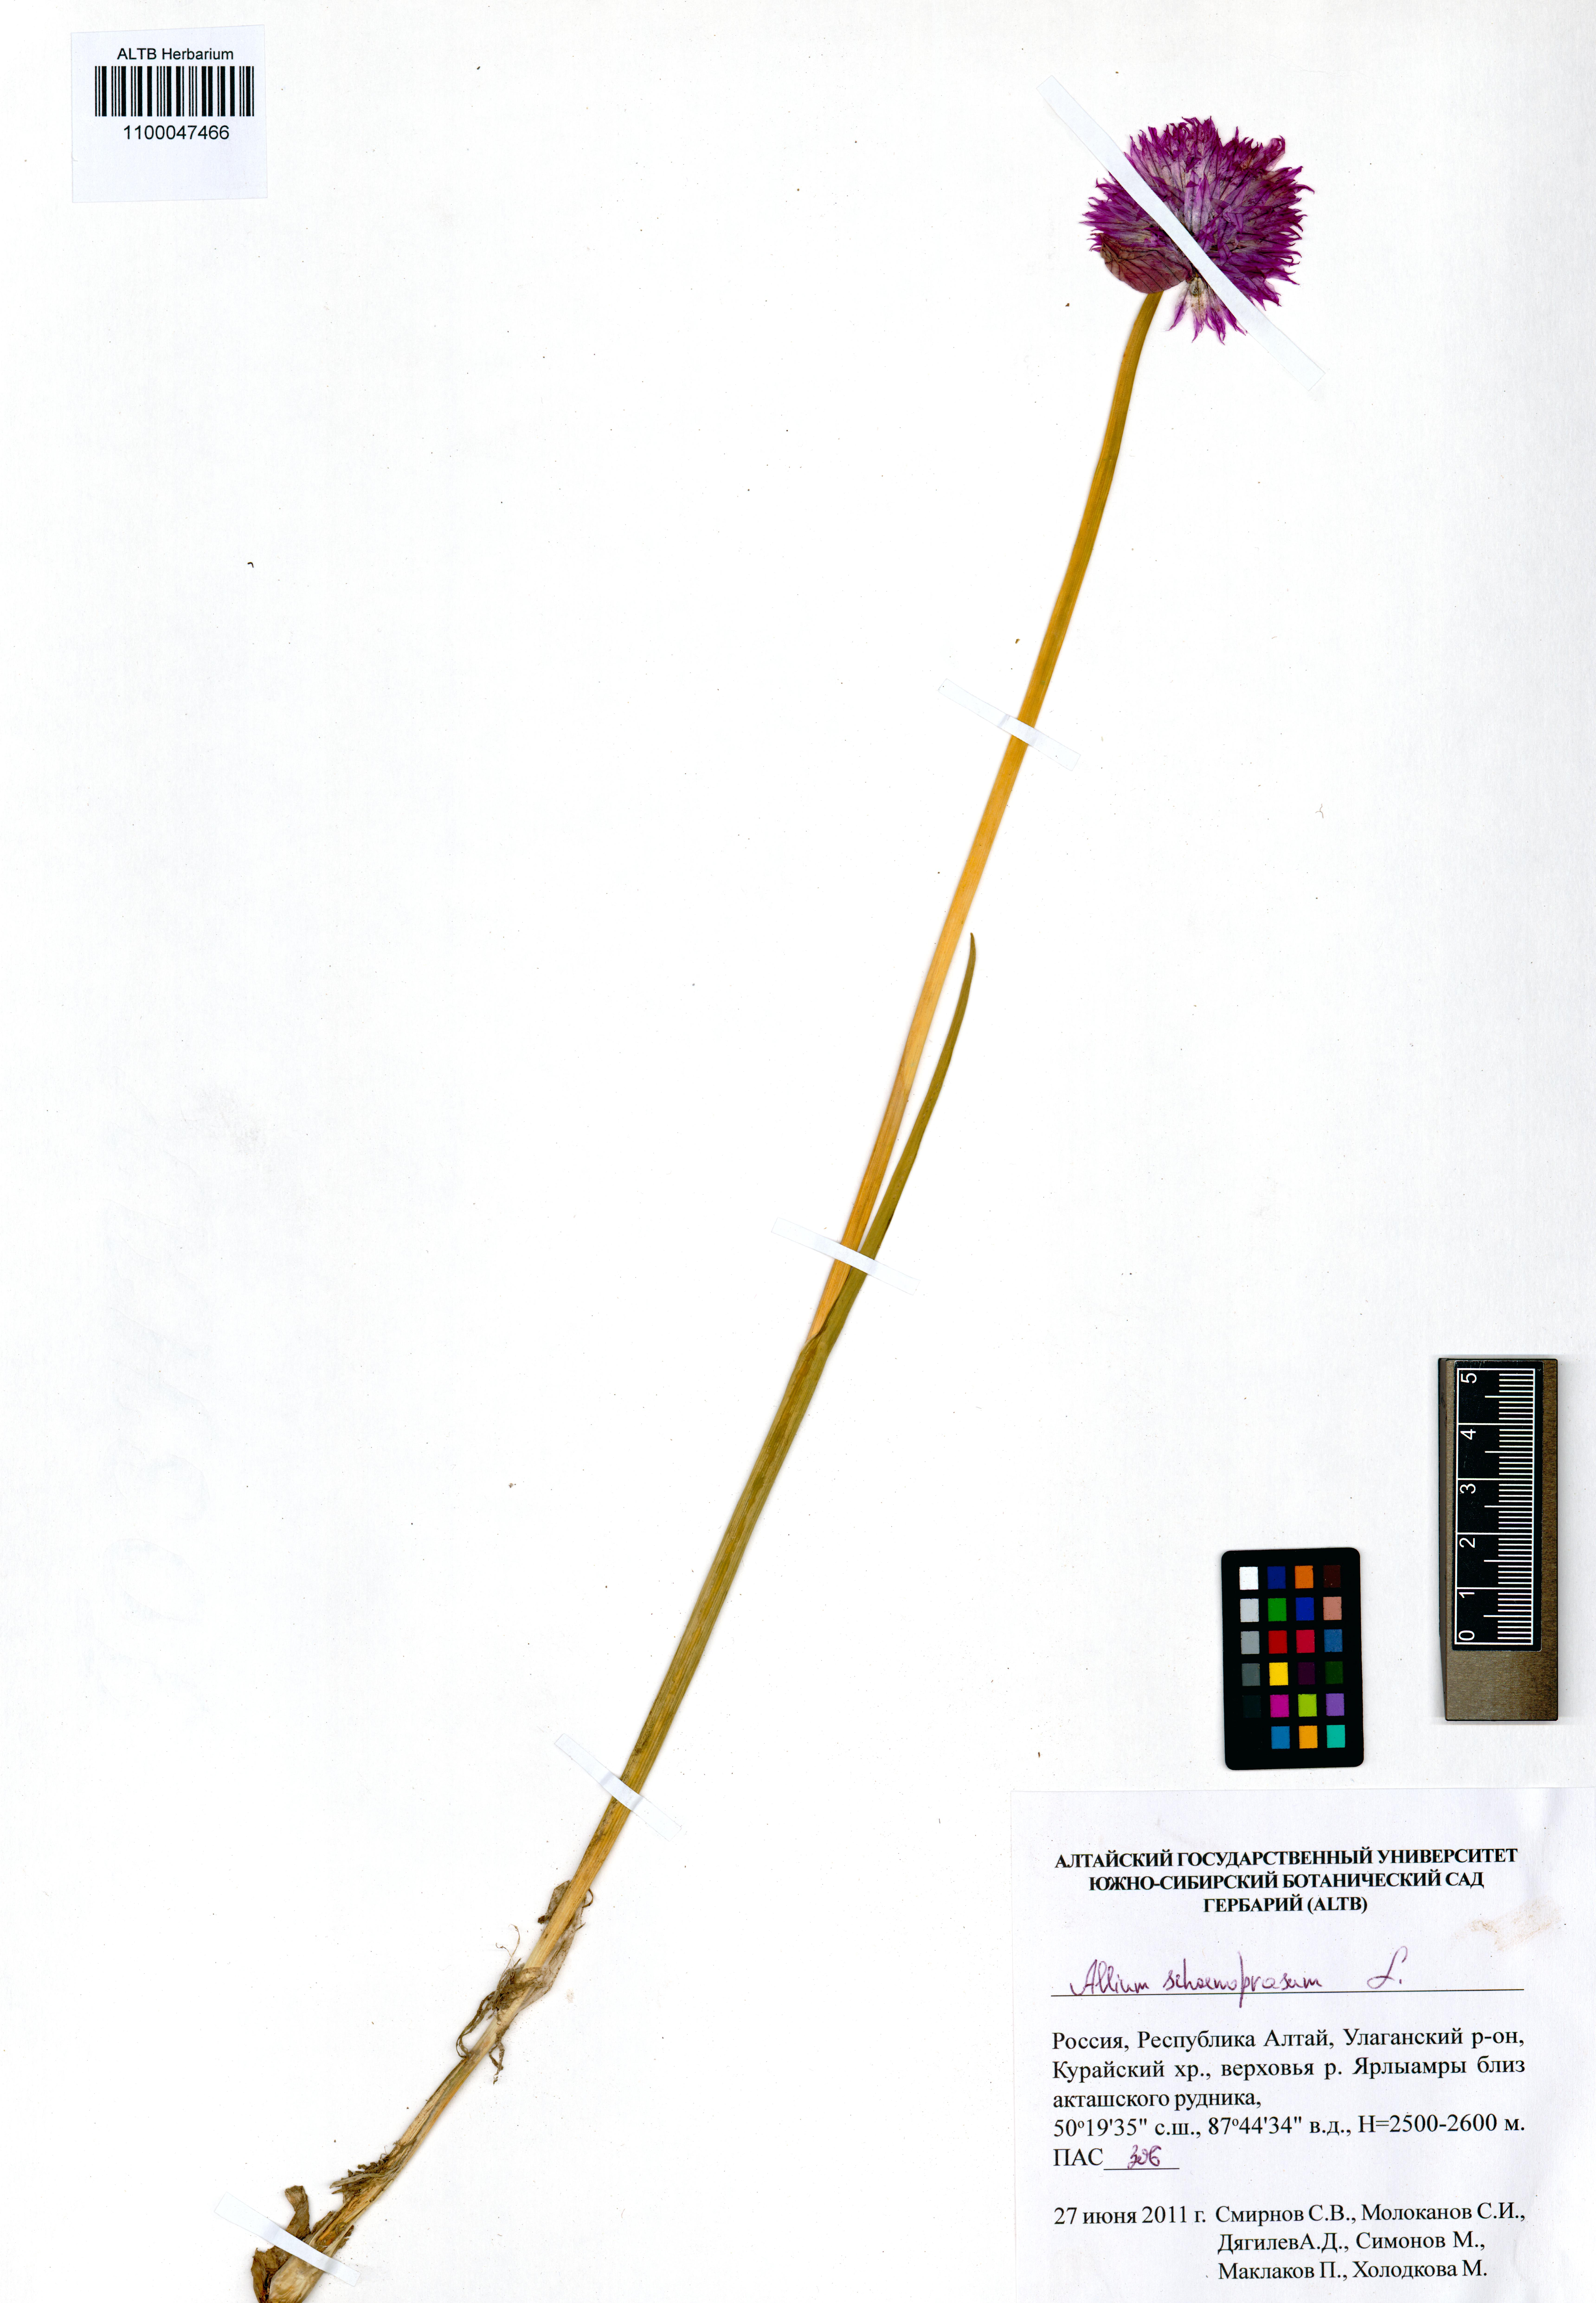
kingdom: Plantae
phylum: Tracheophyta
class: Liliopsida
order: Asparagales
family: Amaryllidaceae
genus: Allium
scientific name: Allium schoenoprasum
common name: Chives
